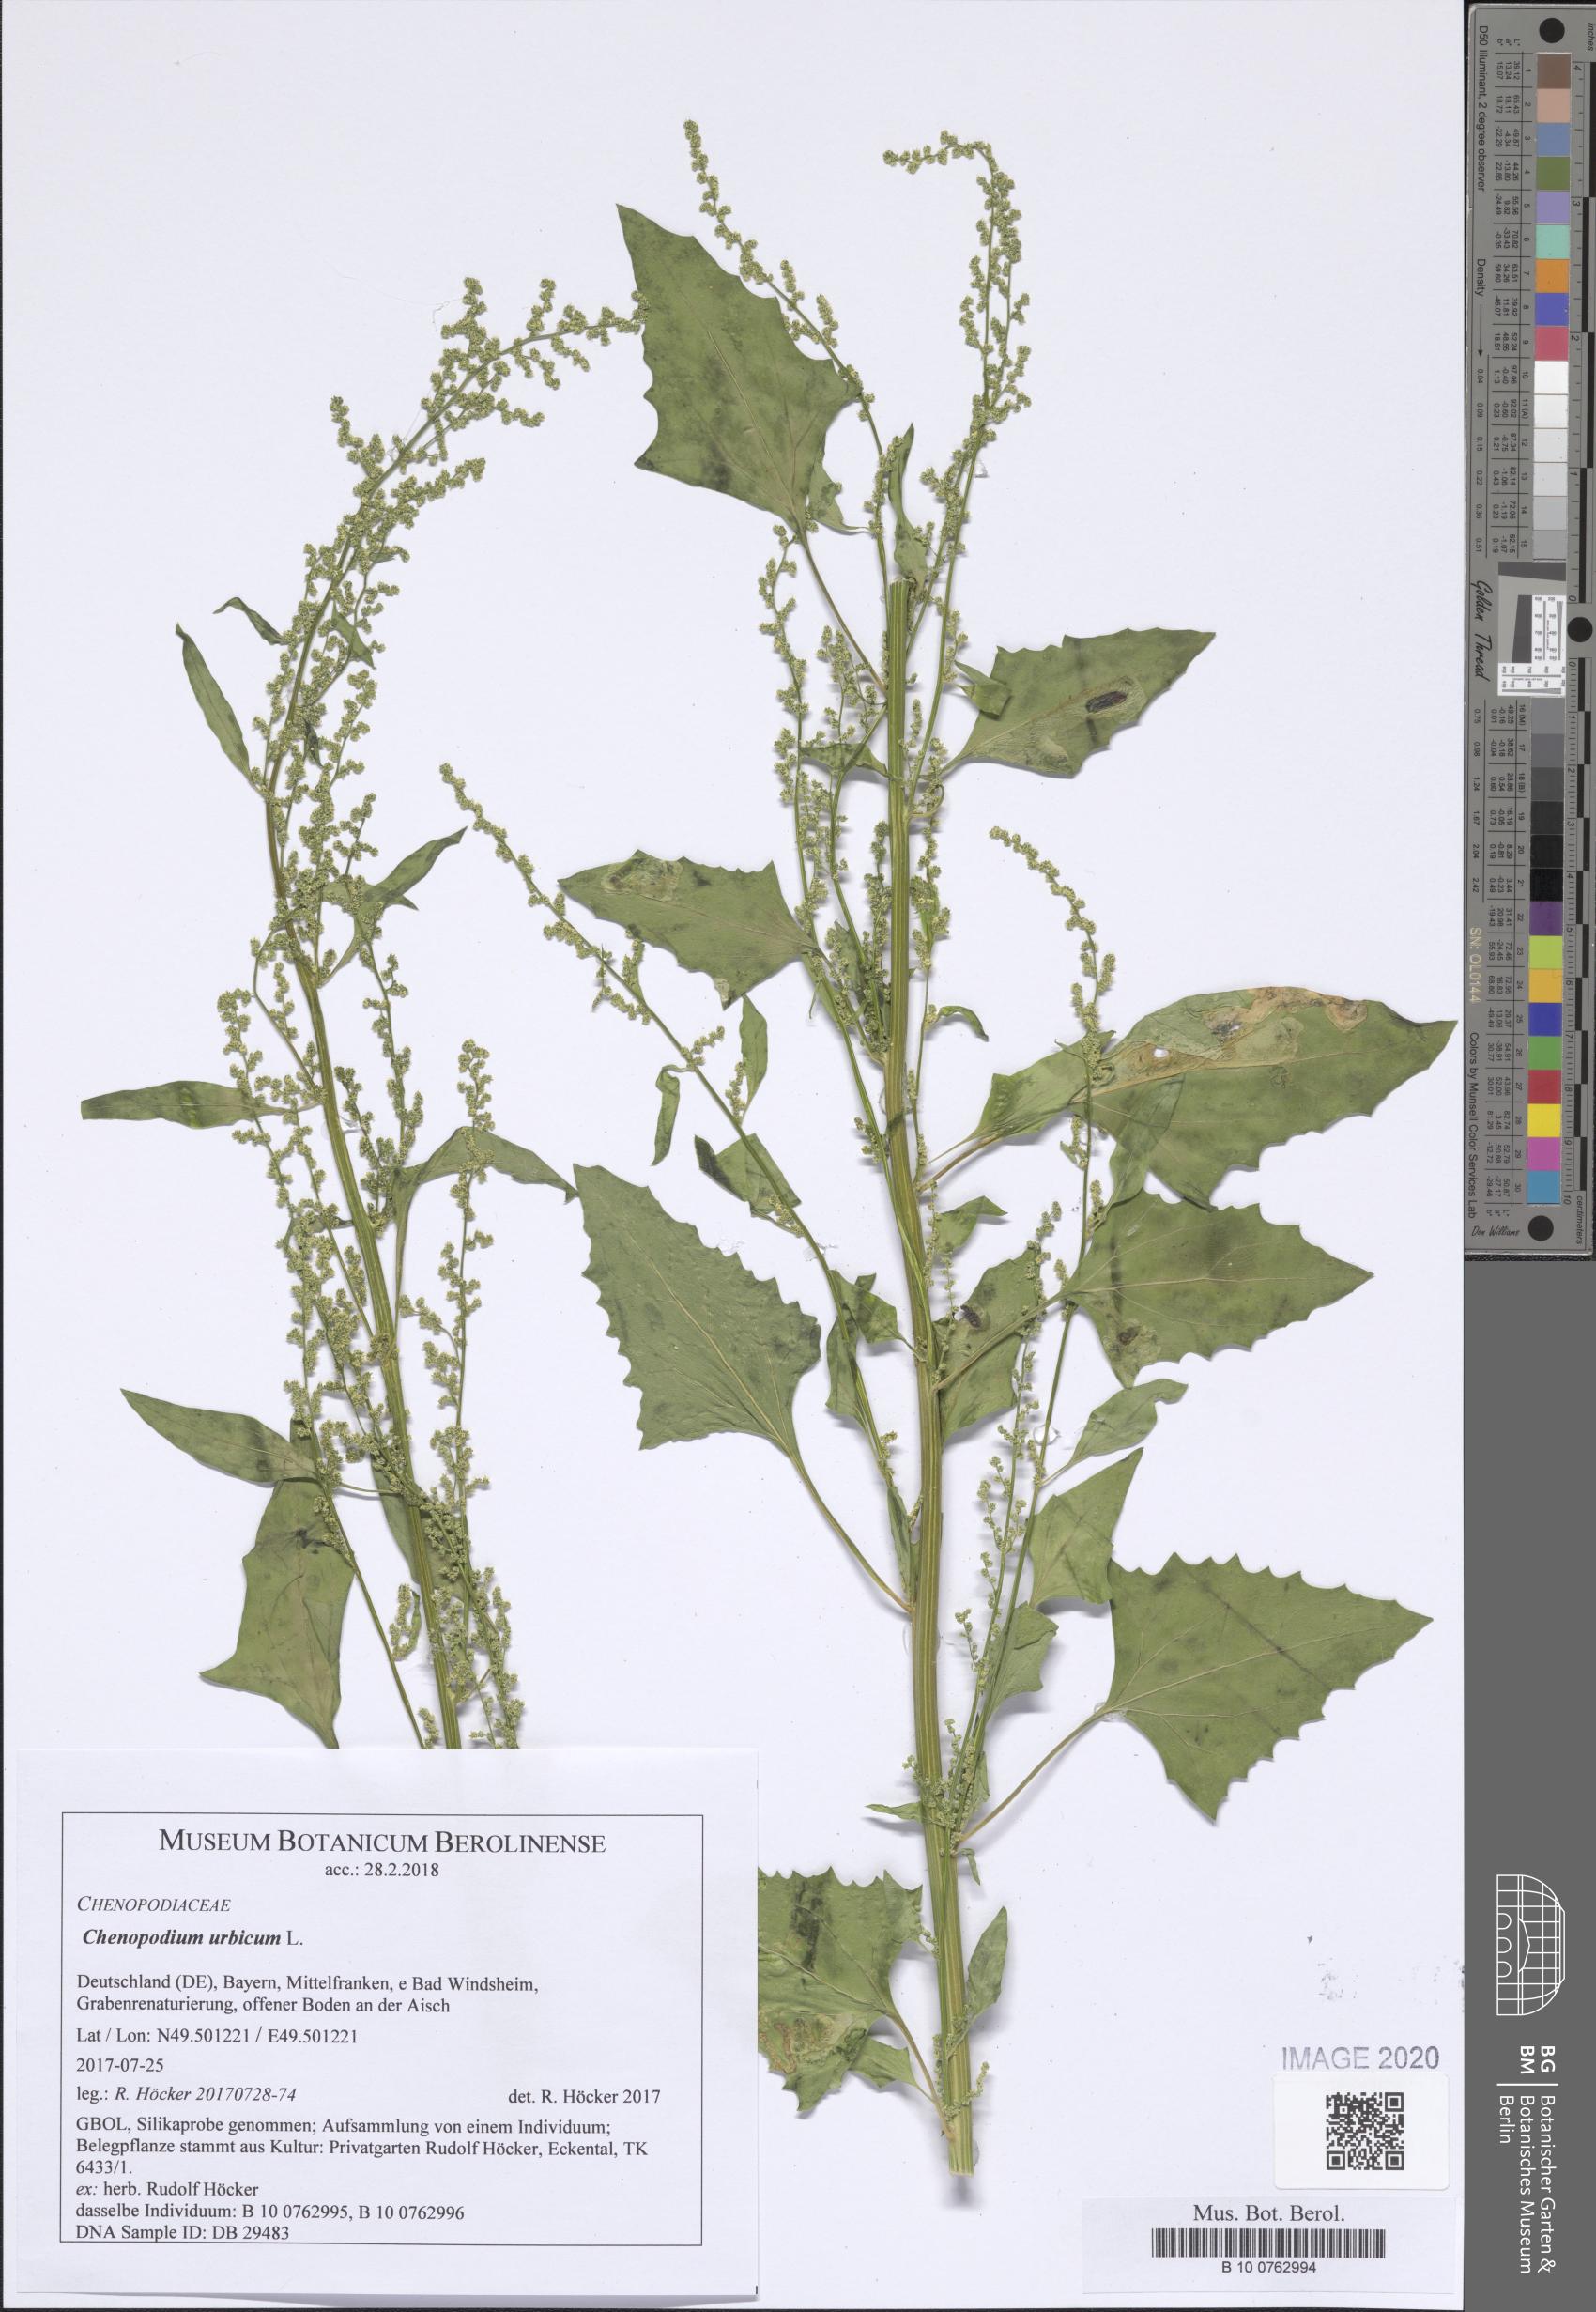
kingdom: Plantae
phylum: Tracheophyta
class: Magnoliopsida
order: Caryophyllales
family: Amaranthaceae
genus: Oxybasis
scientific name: Oxybasis urbica
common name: City goosefoot
